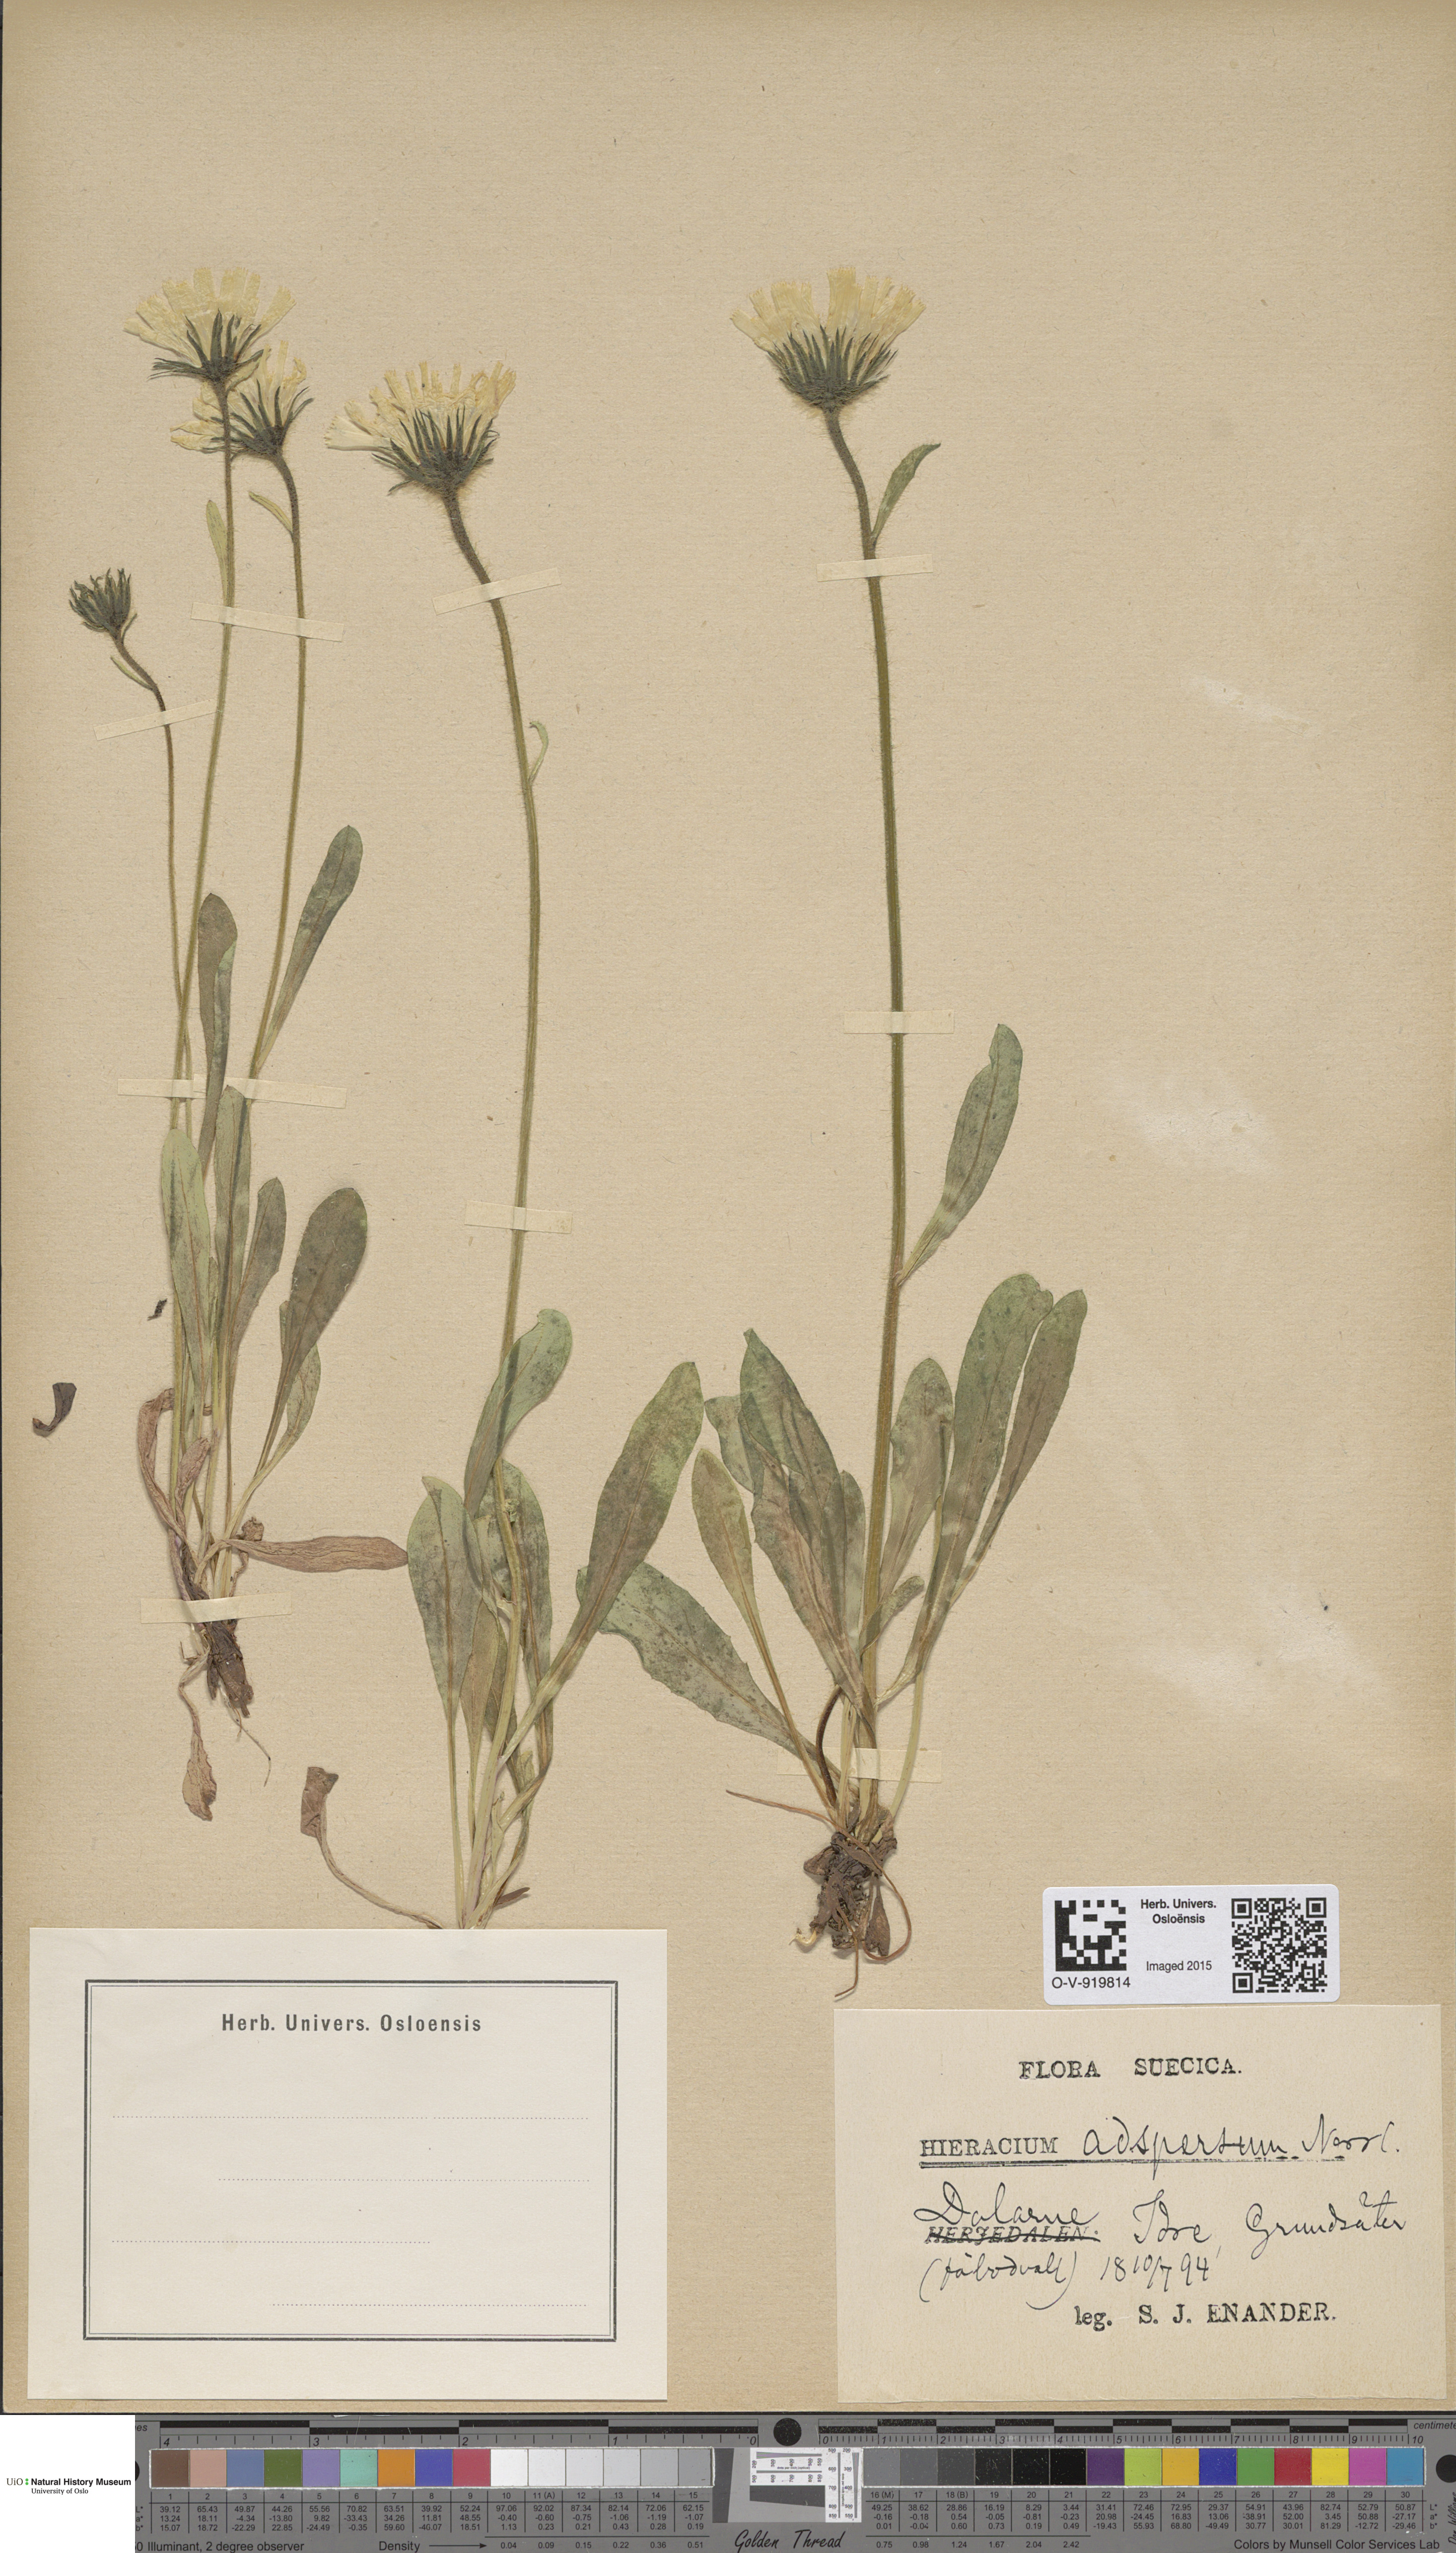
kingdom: Plantae
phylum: Tracheophyta
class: Magnoliopsida
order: Asterales
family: Asteraceae
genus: Hieracium
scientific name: Hieracium alpinum
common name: Alpine hawkweed
